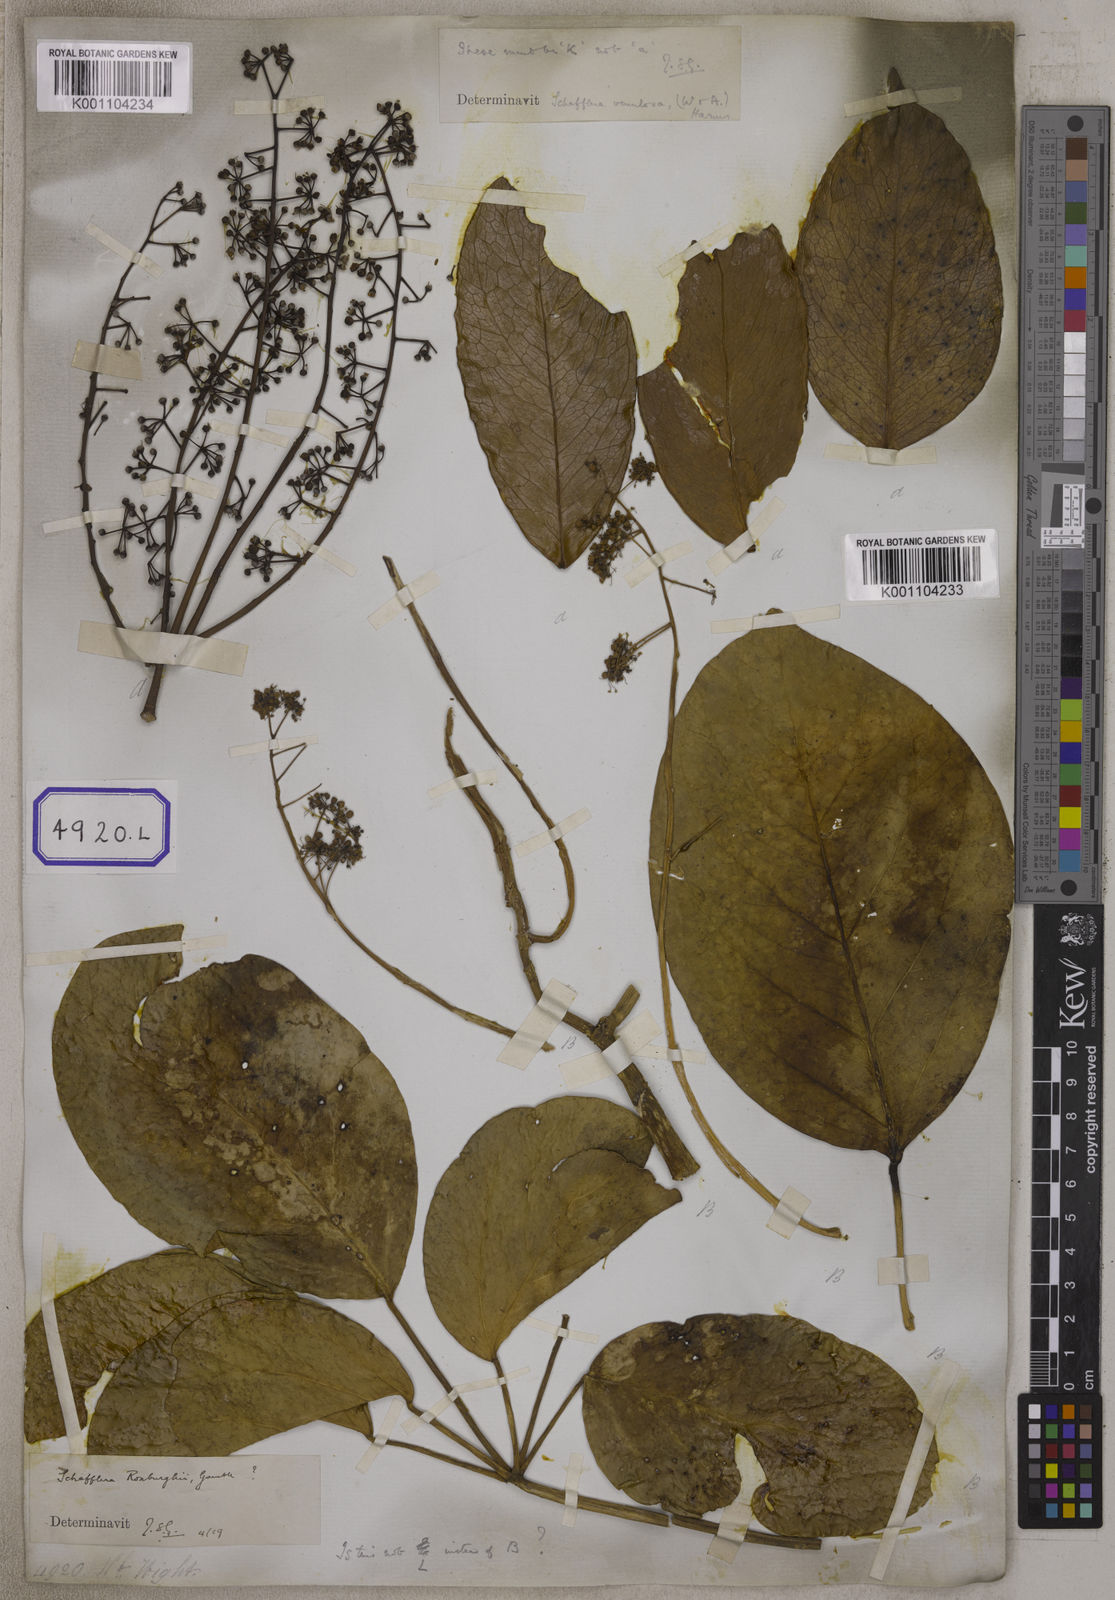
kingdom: Plantae
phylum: Tracheophyta
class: Magnoliopsida
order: Apiales
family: Araliaceae
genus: Hedera
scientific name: Hedera
